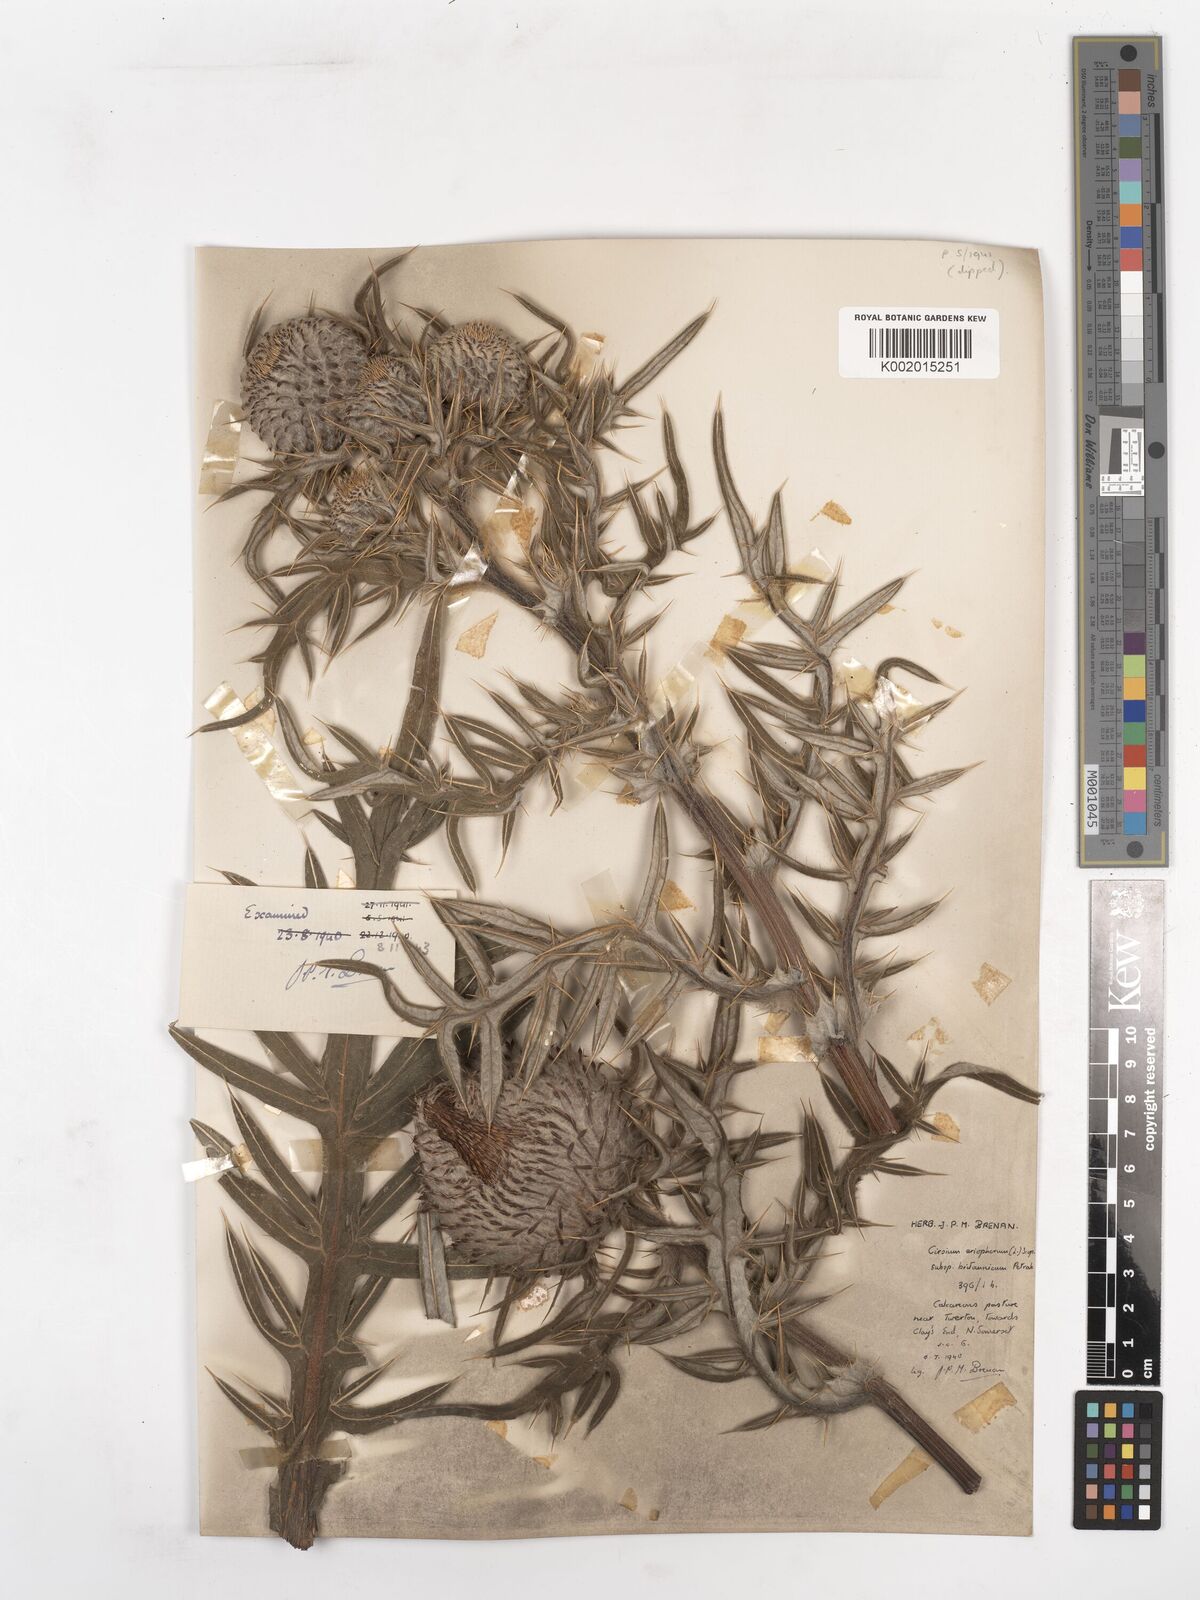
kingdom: Plantae
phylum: Tracheophyta
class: Magnoliopsida
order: Asterales
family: Asteraceae
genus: Lophiolepis
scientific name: Lophiolepis eriophora
